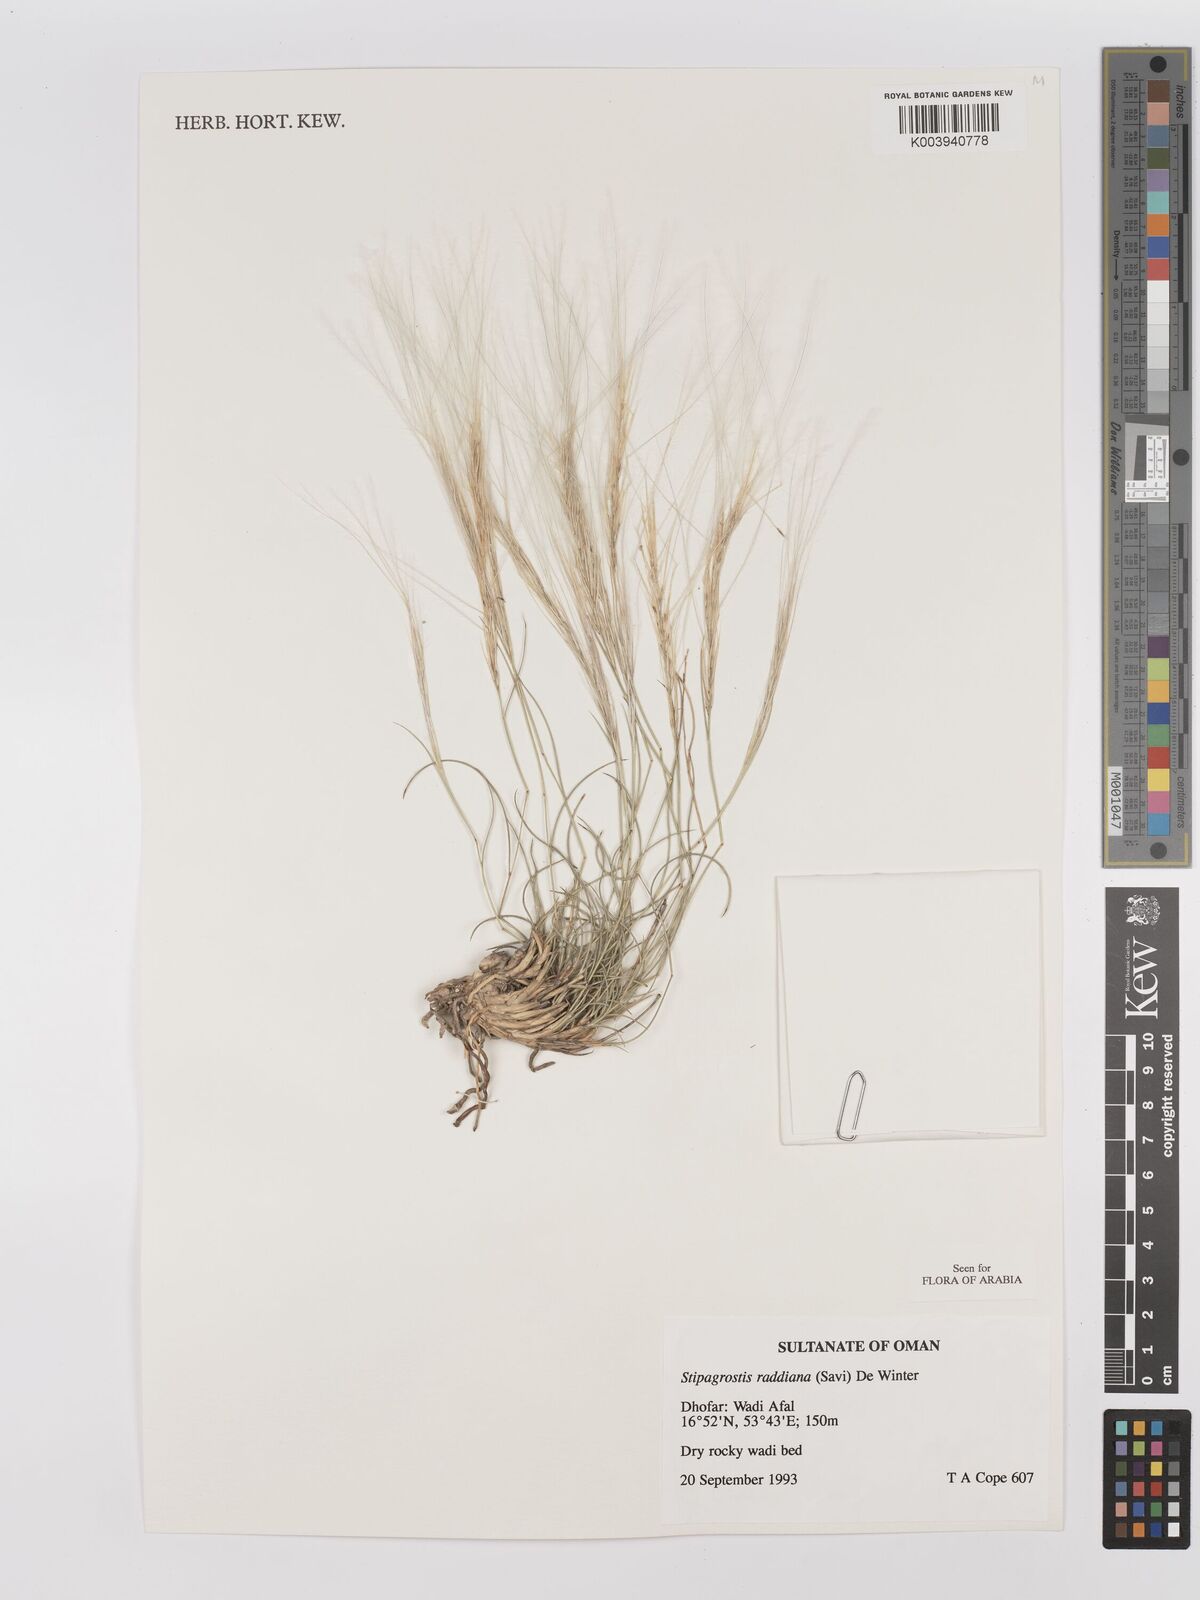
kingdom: Plantae
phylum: Tracheophyta
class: Liliopsida
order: Poales
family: Poaceae
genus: Stipagrostis
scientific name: Stipagrostis raddiana
